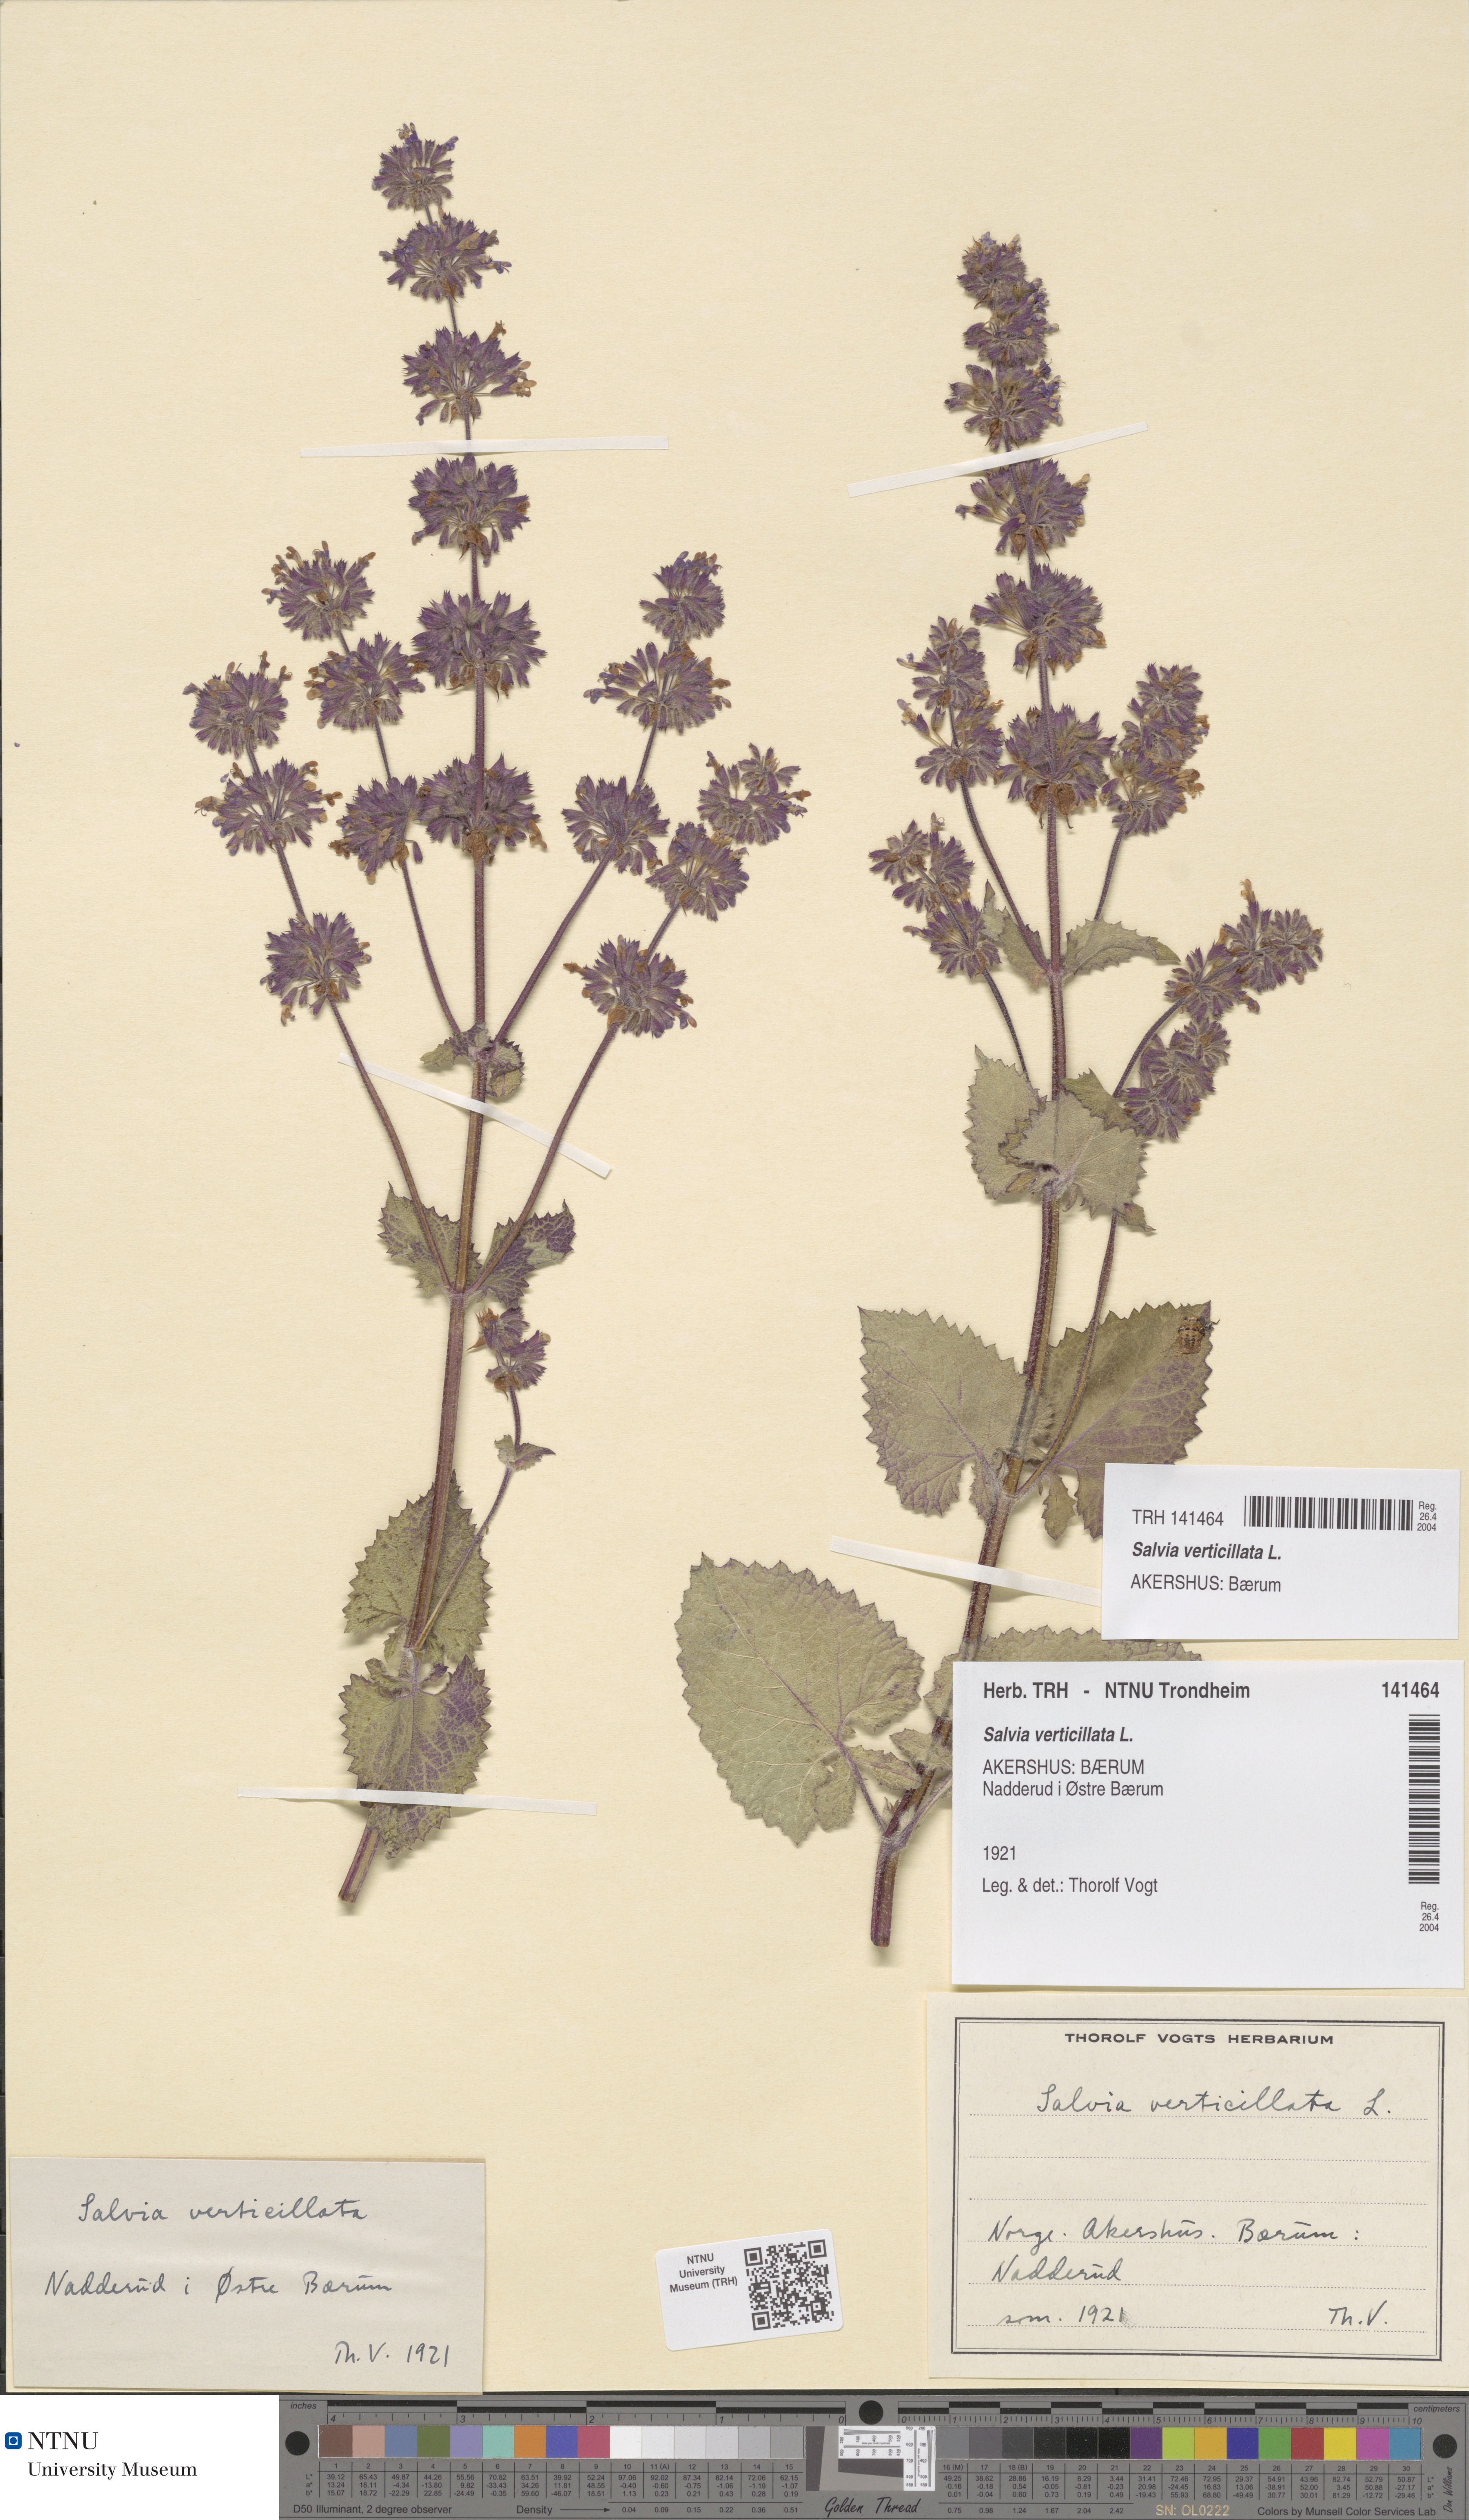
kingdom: Plantae
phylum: Tracheophyta
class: Magnoliopsida
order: Lamiales
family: Lamiaceae
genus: Salvia
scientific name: Salvia verticillata
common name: Whorled clary
